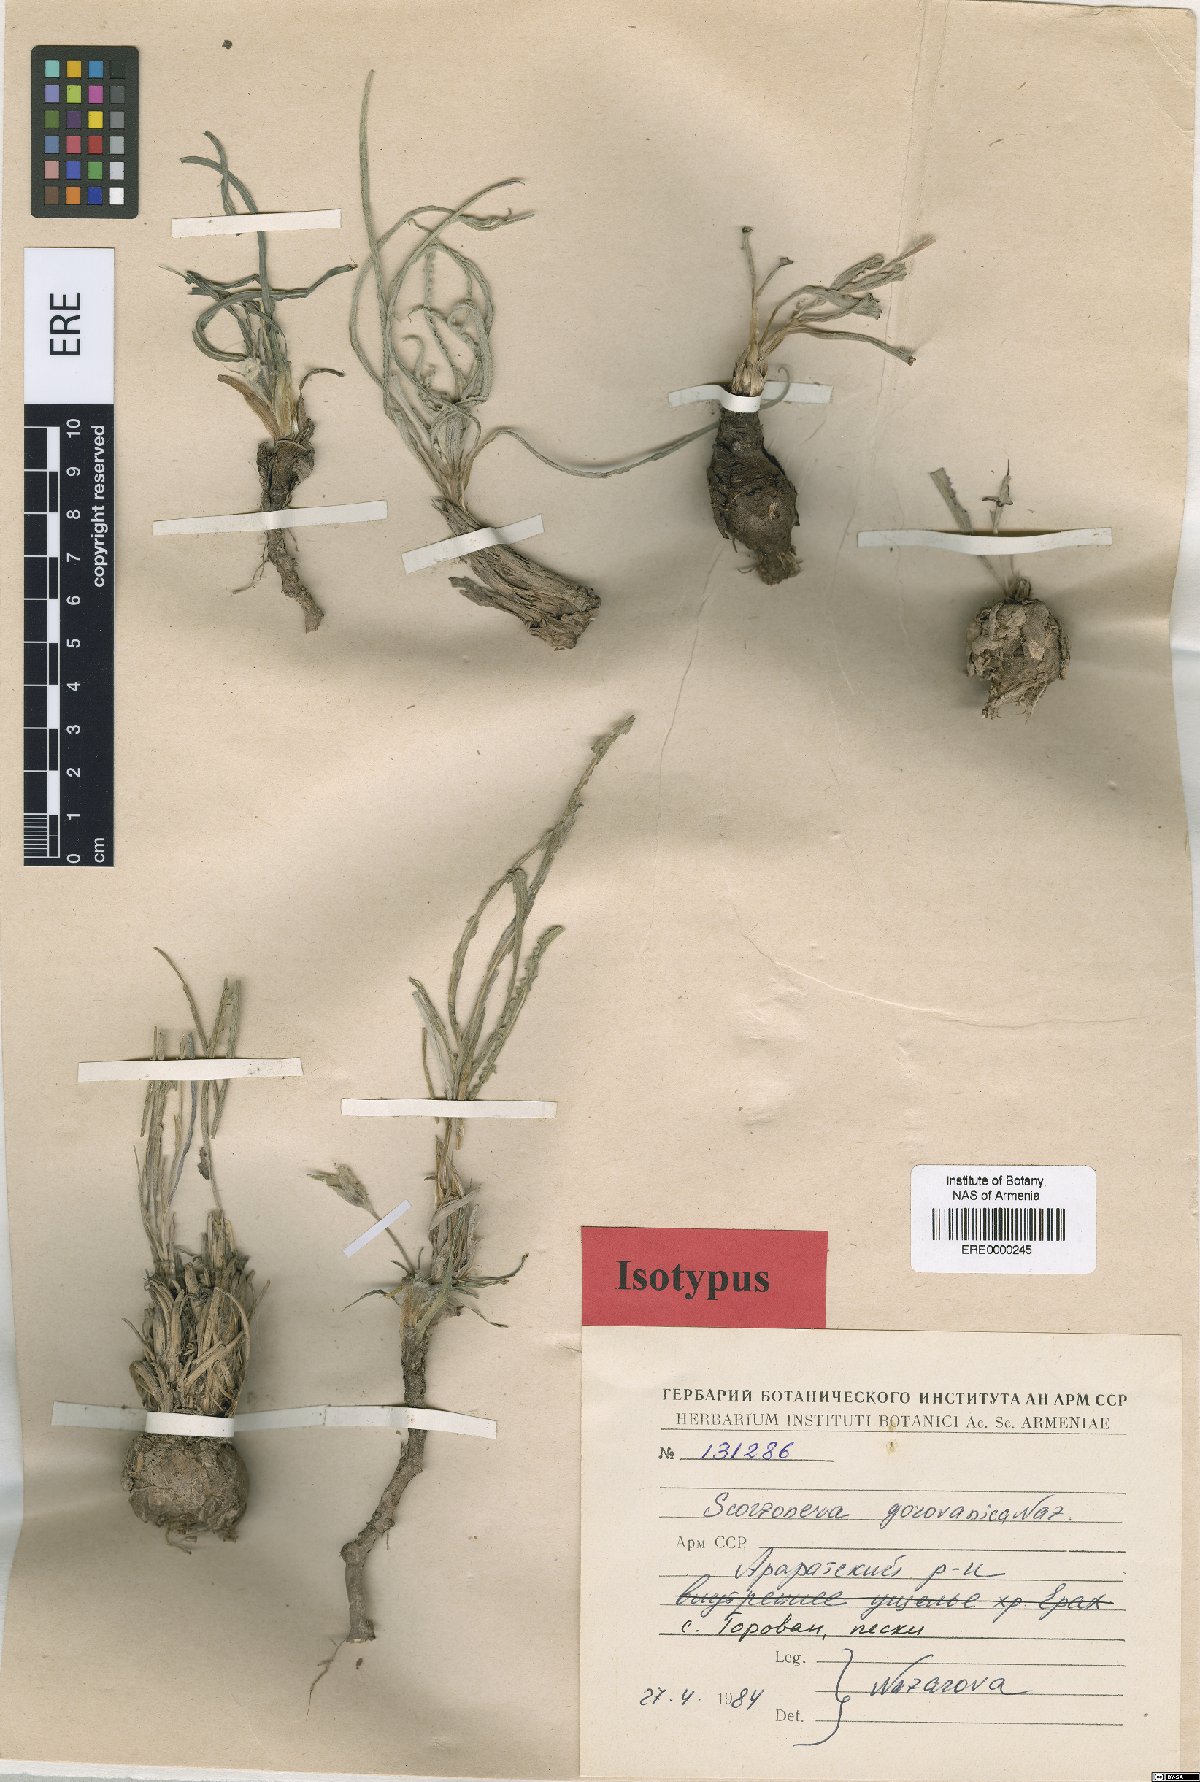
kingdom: Plantae
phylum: Tracheophyta
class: Magnoliopsida
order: Asterales
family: Asteraceae
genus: Scorzonera
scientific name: Scorzonera gorovanica
